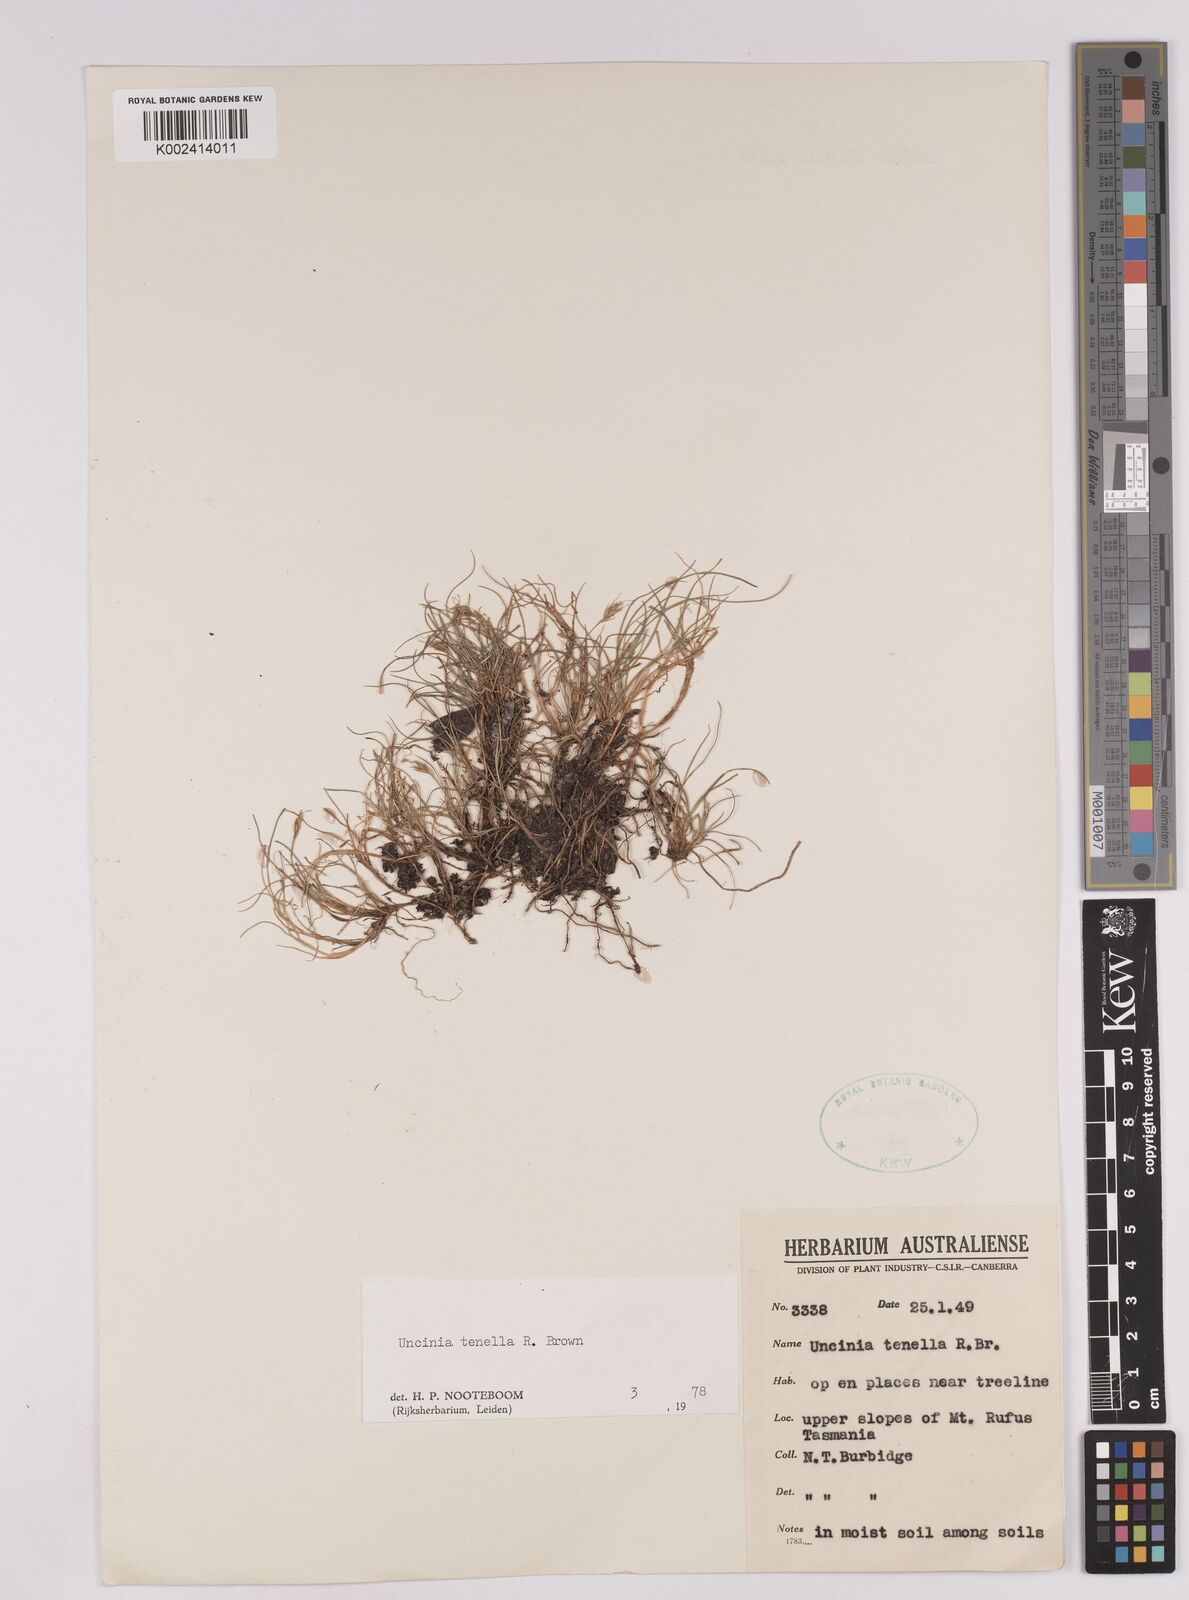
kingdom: Plantae
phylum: Tracheophyta
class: Liliopsida
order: Poales
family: Cyperaceae
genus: Carex
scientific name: Carex austrotenella
